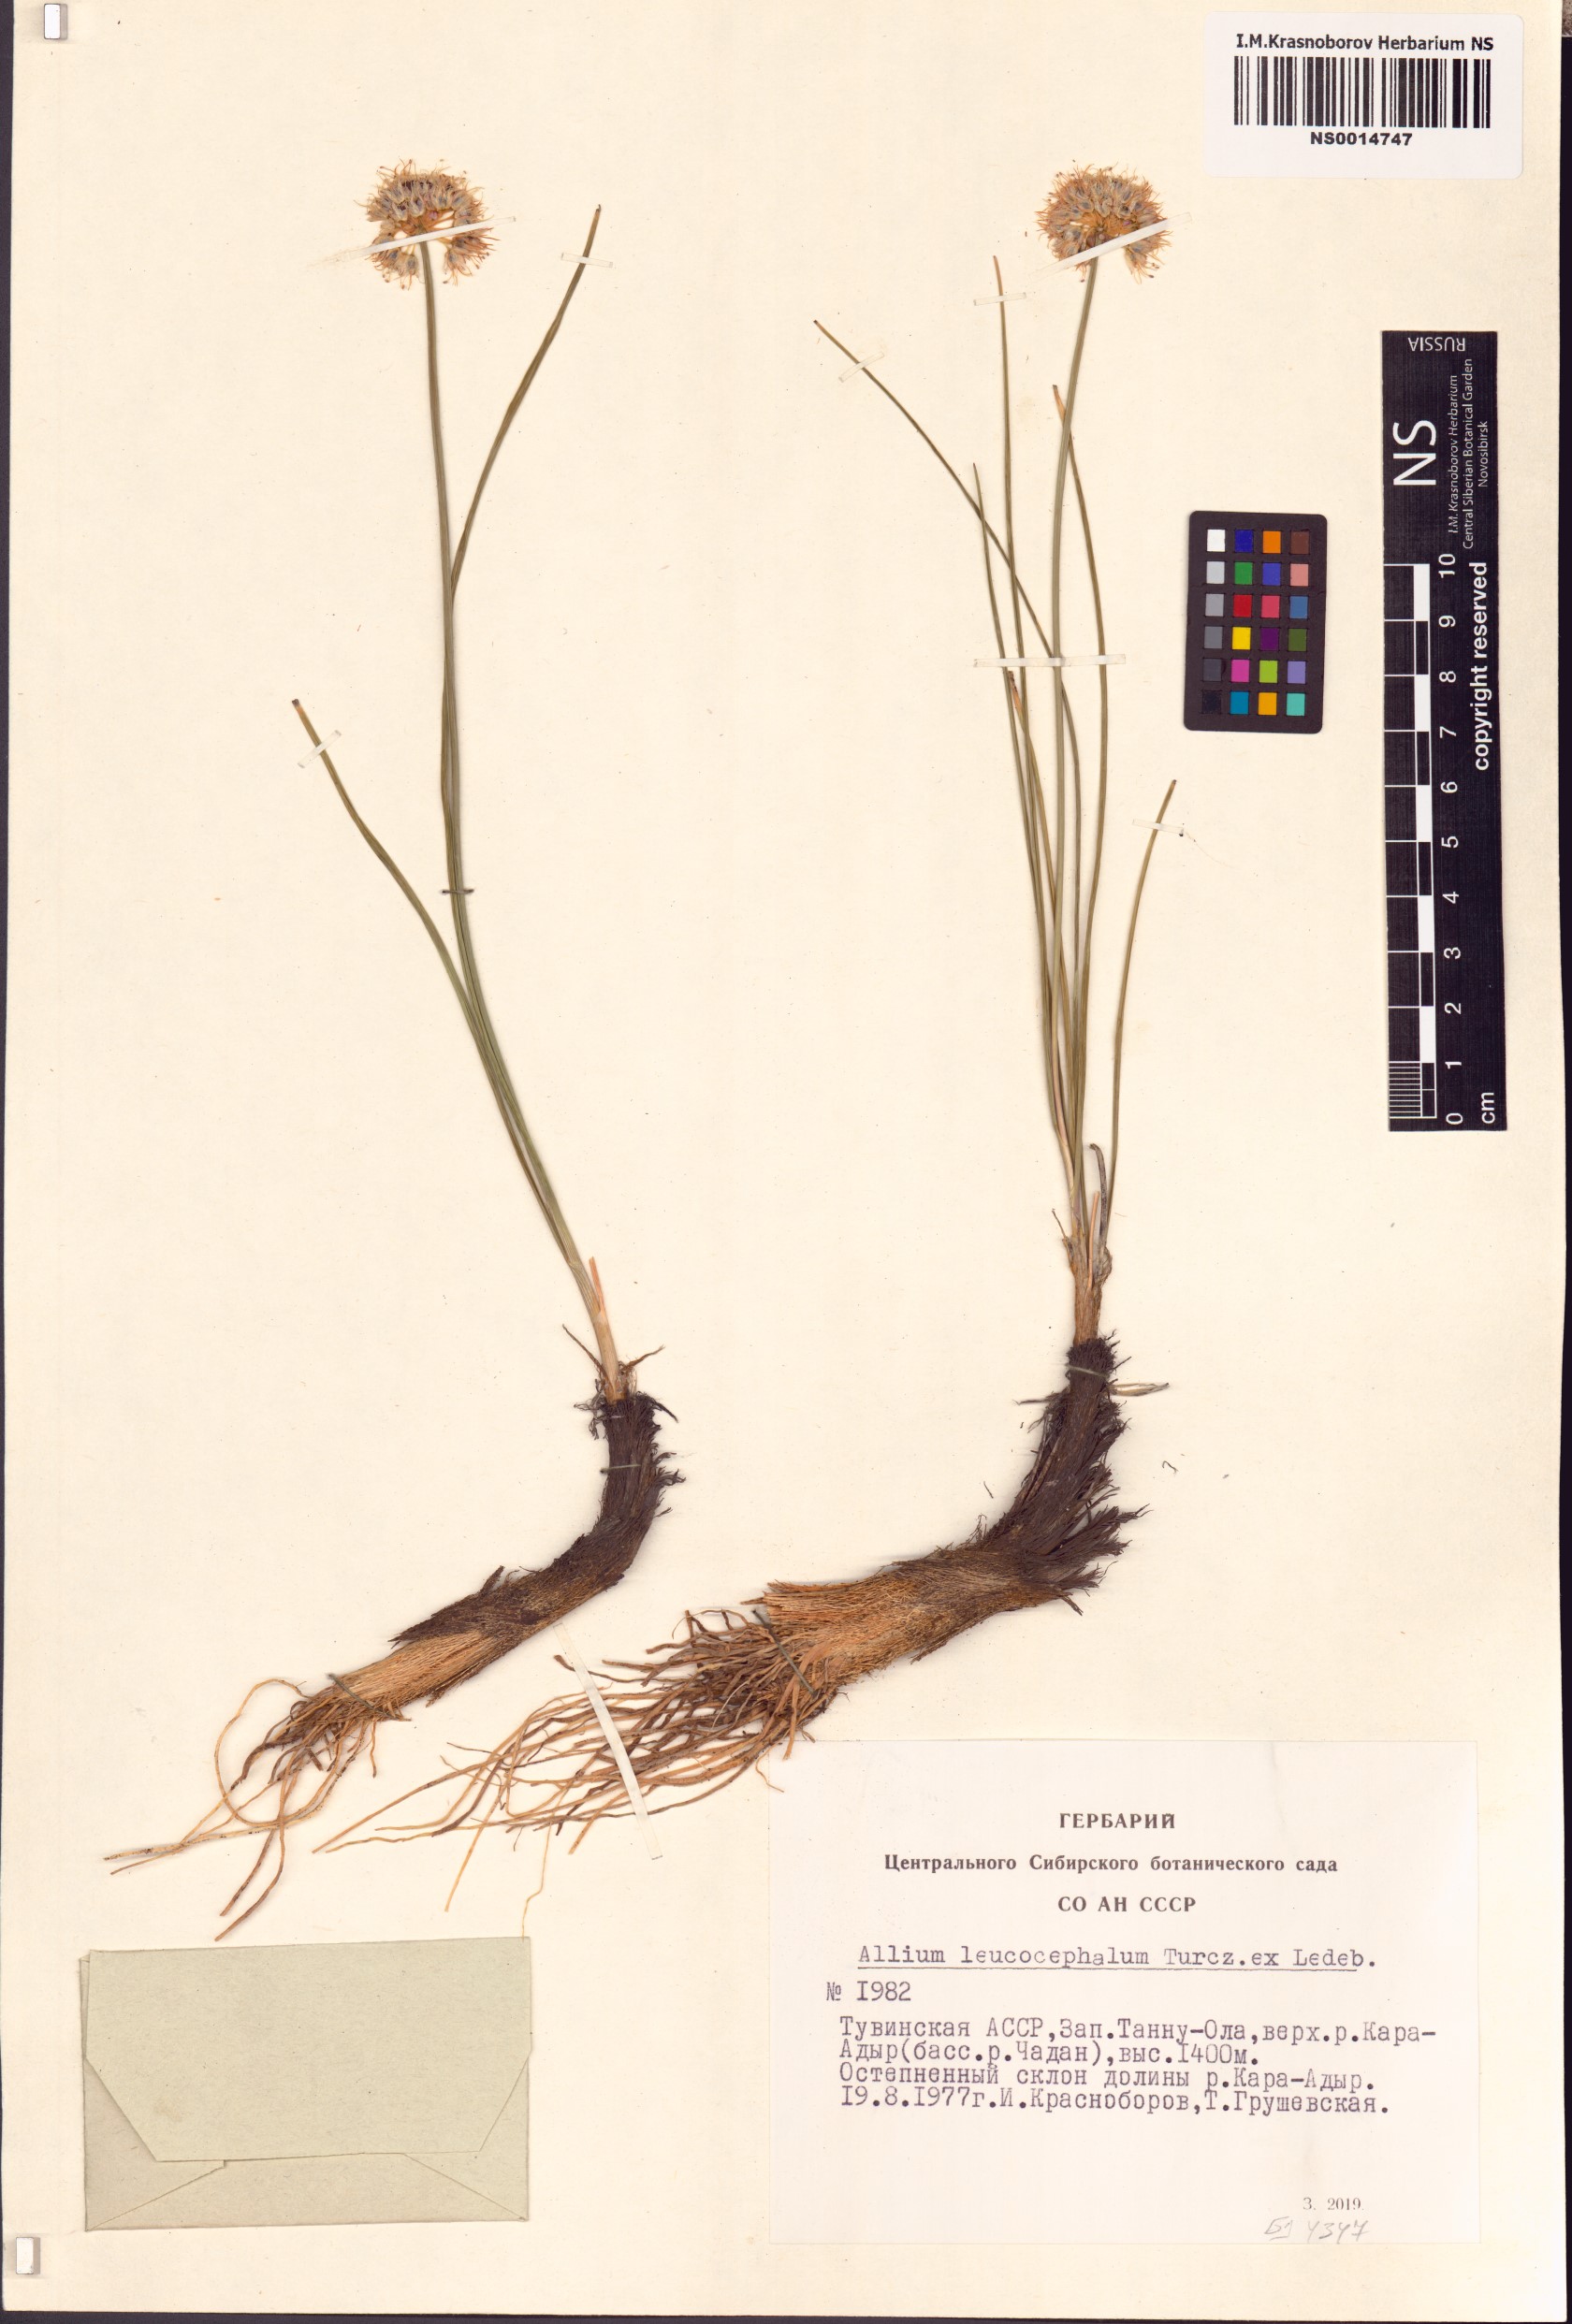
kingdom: Plantae
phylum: Tracheophyta
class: Liliopsida
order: Asparagales
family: Amaryllidaceae
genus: Allium
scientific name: Allium leucocephalum
